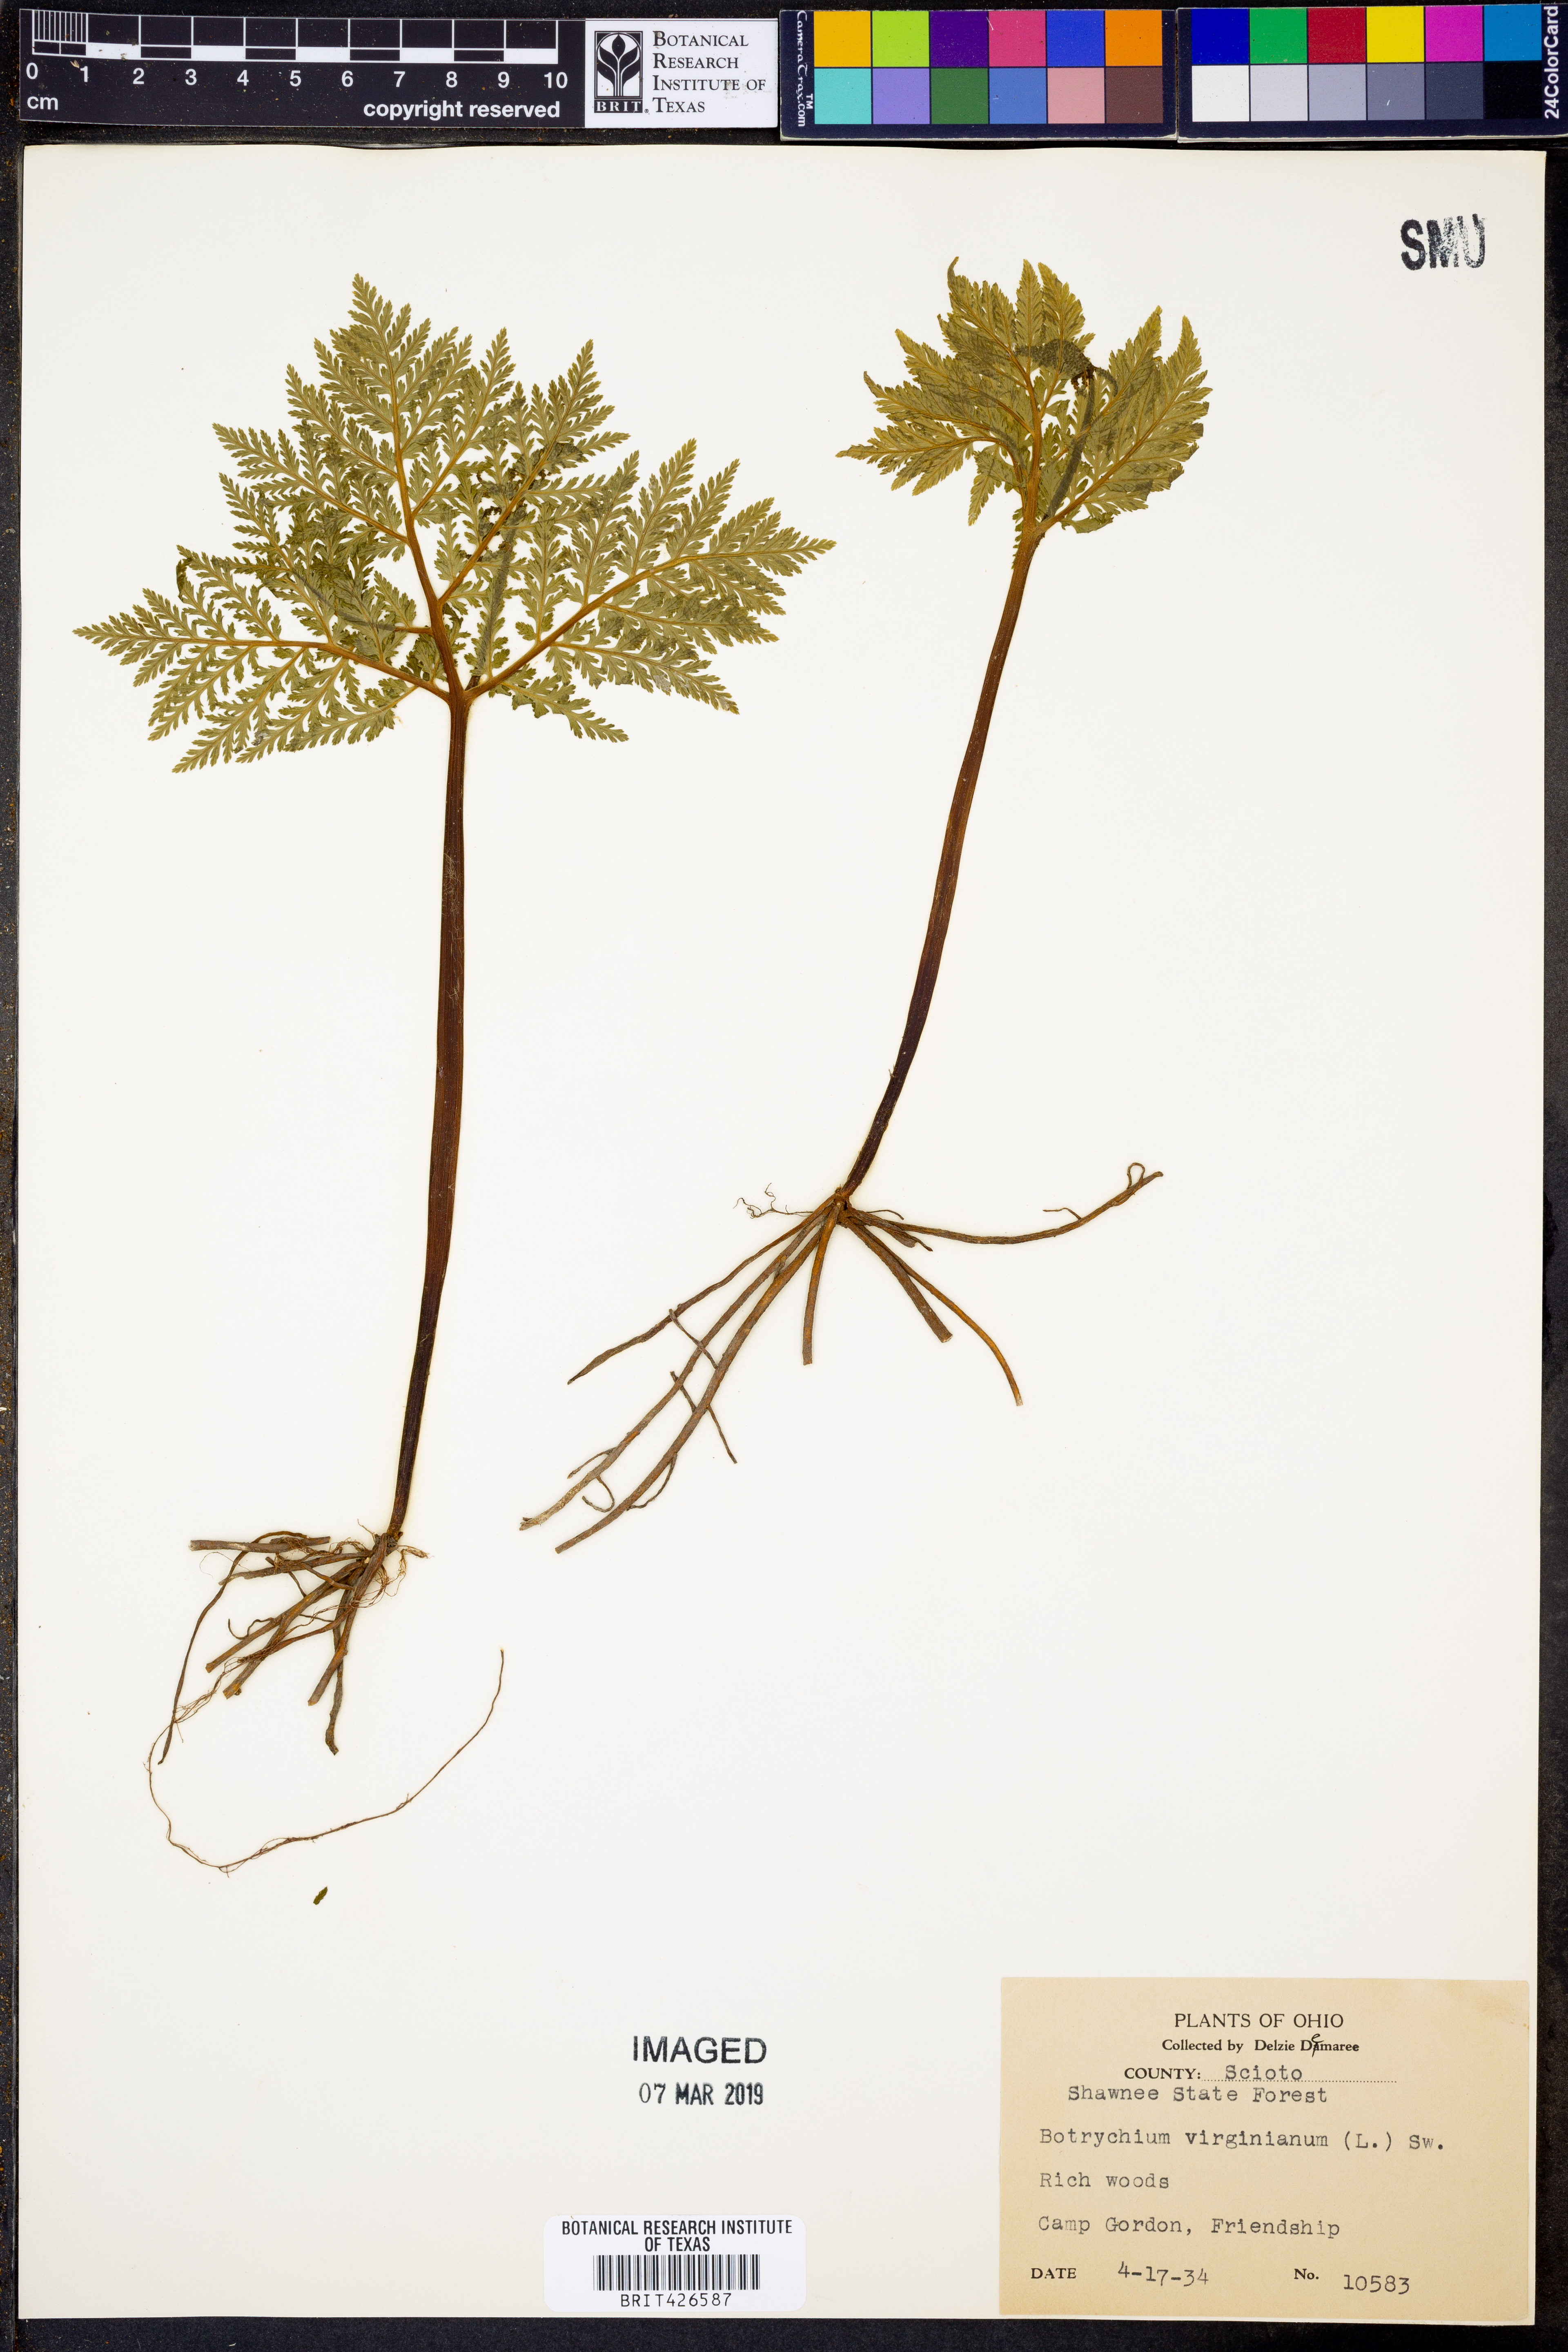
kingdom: Plantae
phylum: Tracheophyta
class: Polypodiopsida
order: Ophioglossales
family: Ophioglossaceae
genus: Botrypus
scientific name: Botrypus virginianus
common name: Common grapefern
